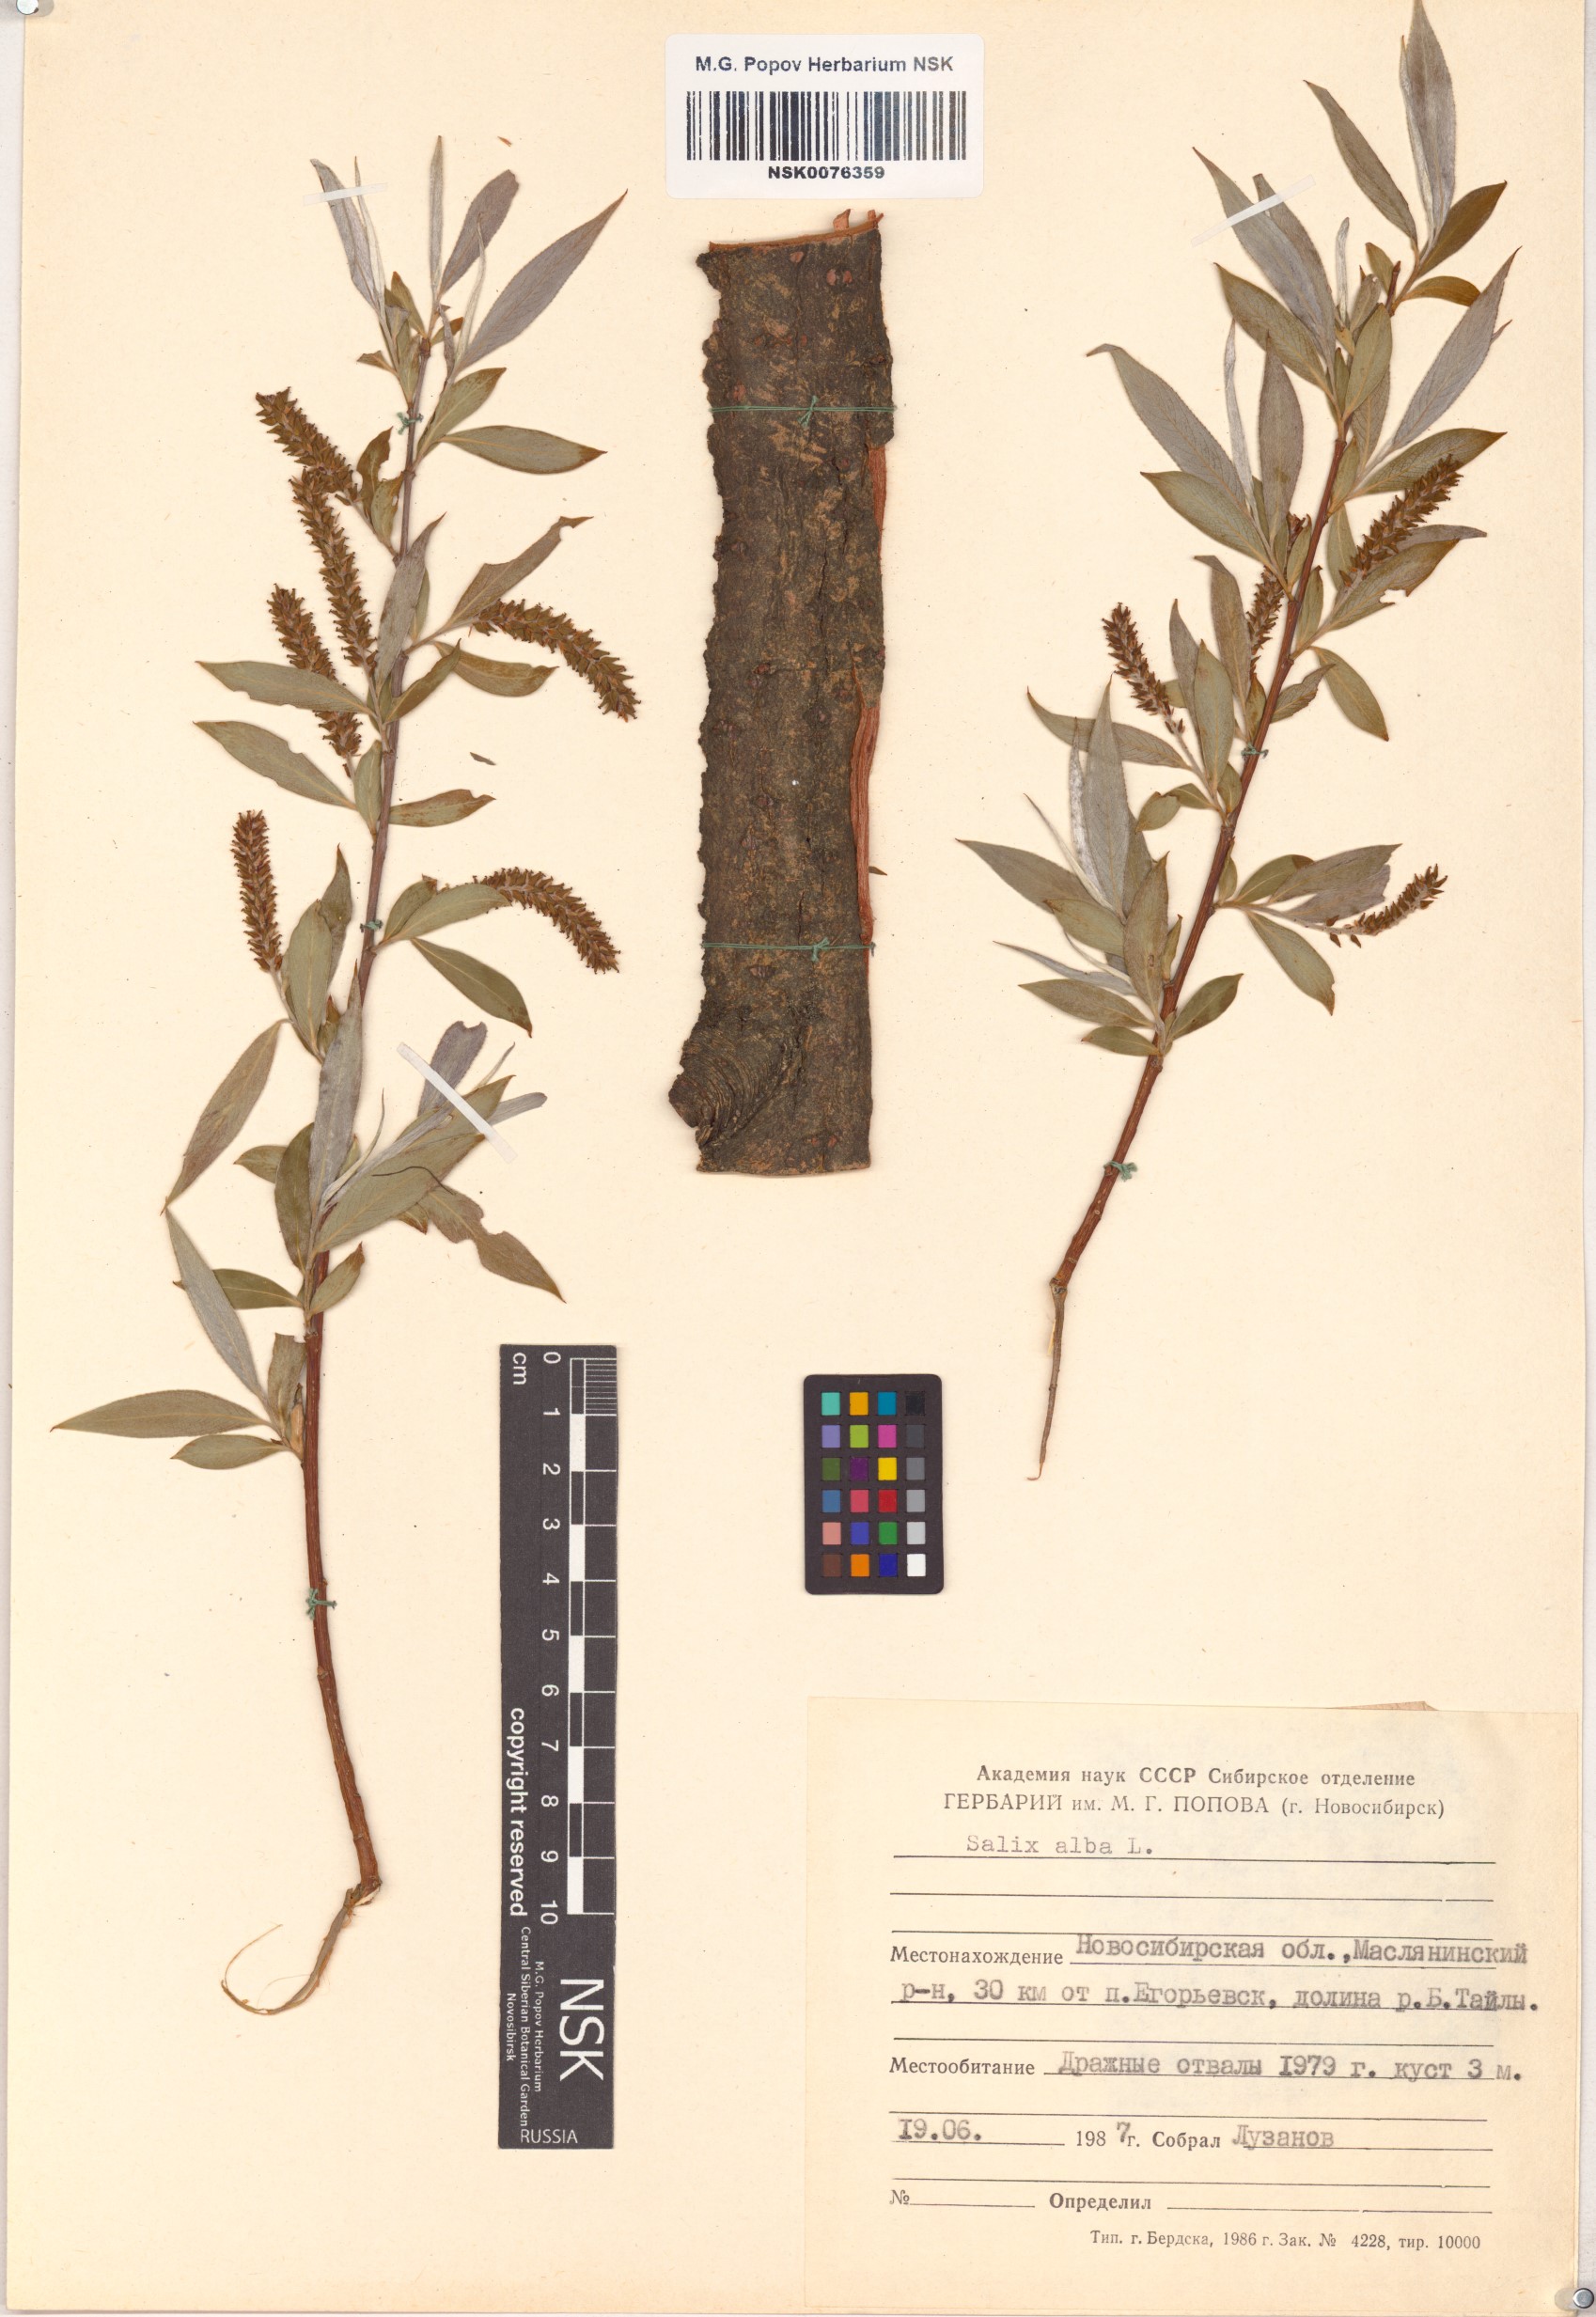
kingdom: Plantae
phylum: Tracheophyta
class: Magnoliopsida
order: Malpighiales
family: Salicaceae
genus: Salix
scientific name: Salix alba
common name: White willow
